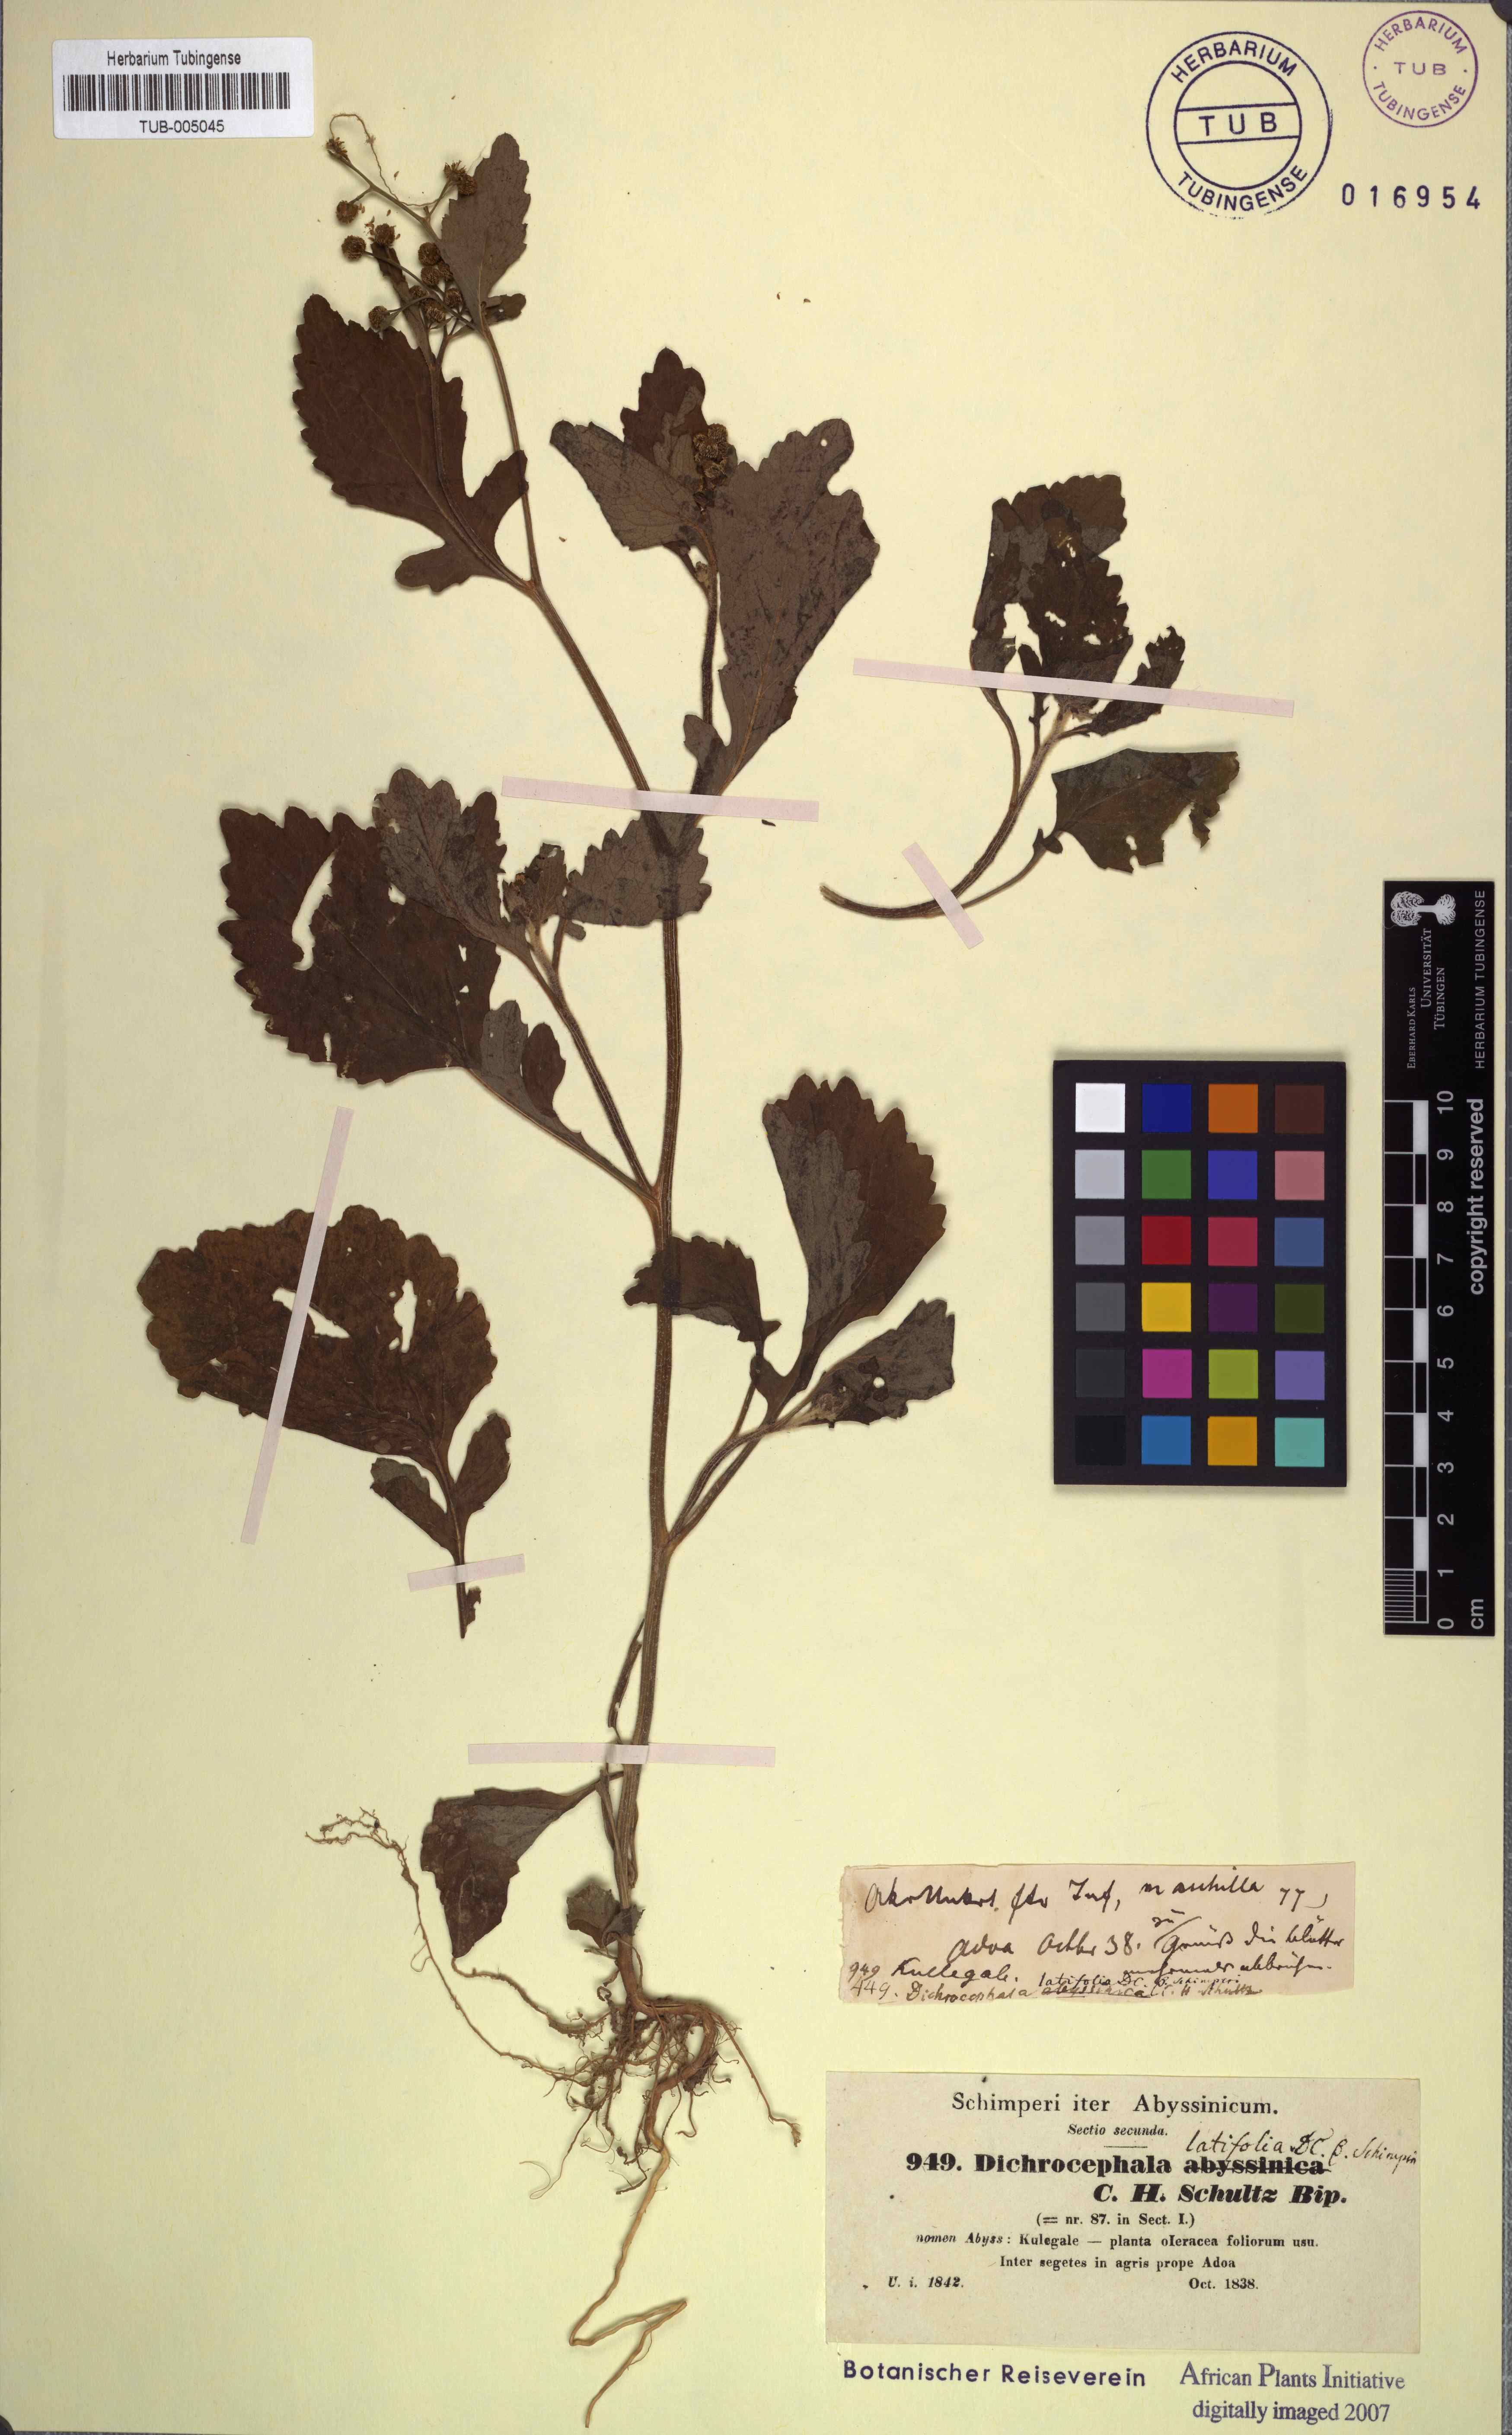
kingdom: Plantae
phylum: Tracheophyta
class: Magnoliopsida
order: Asterales
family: Asteraceae
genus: Dichrocephala
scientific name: Dichrocephala integrifolia
